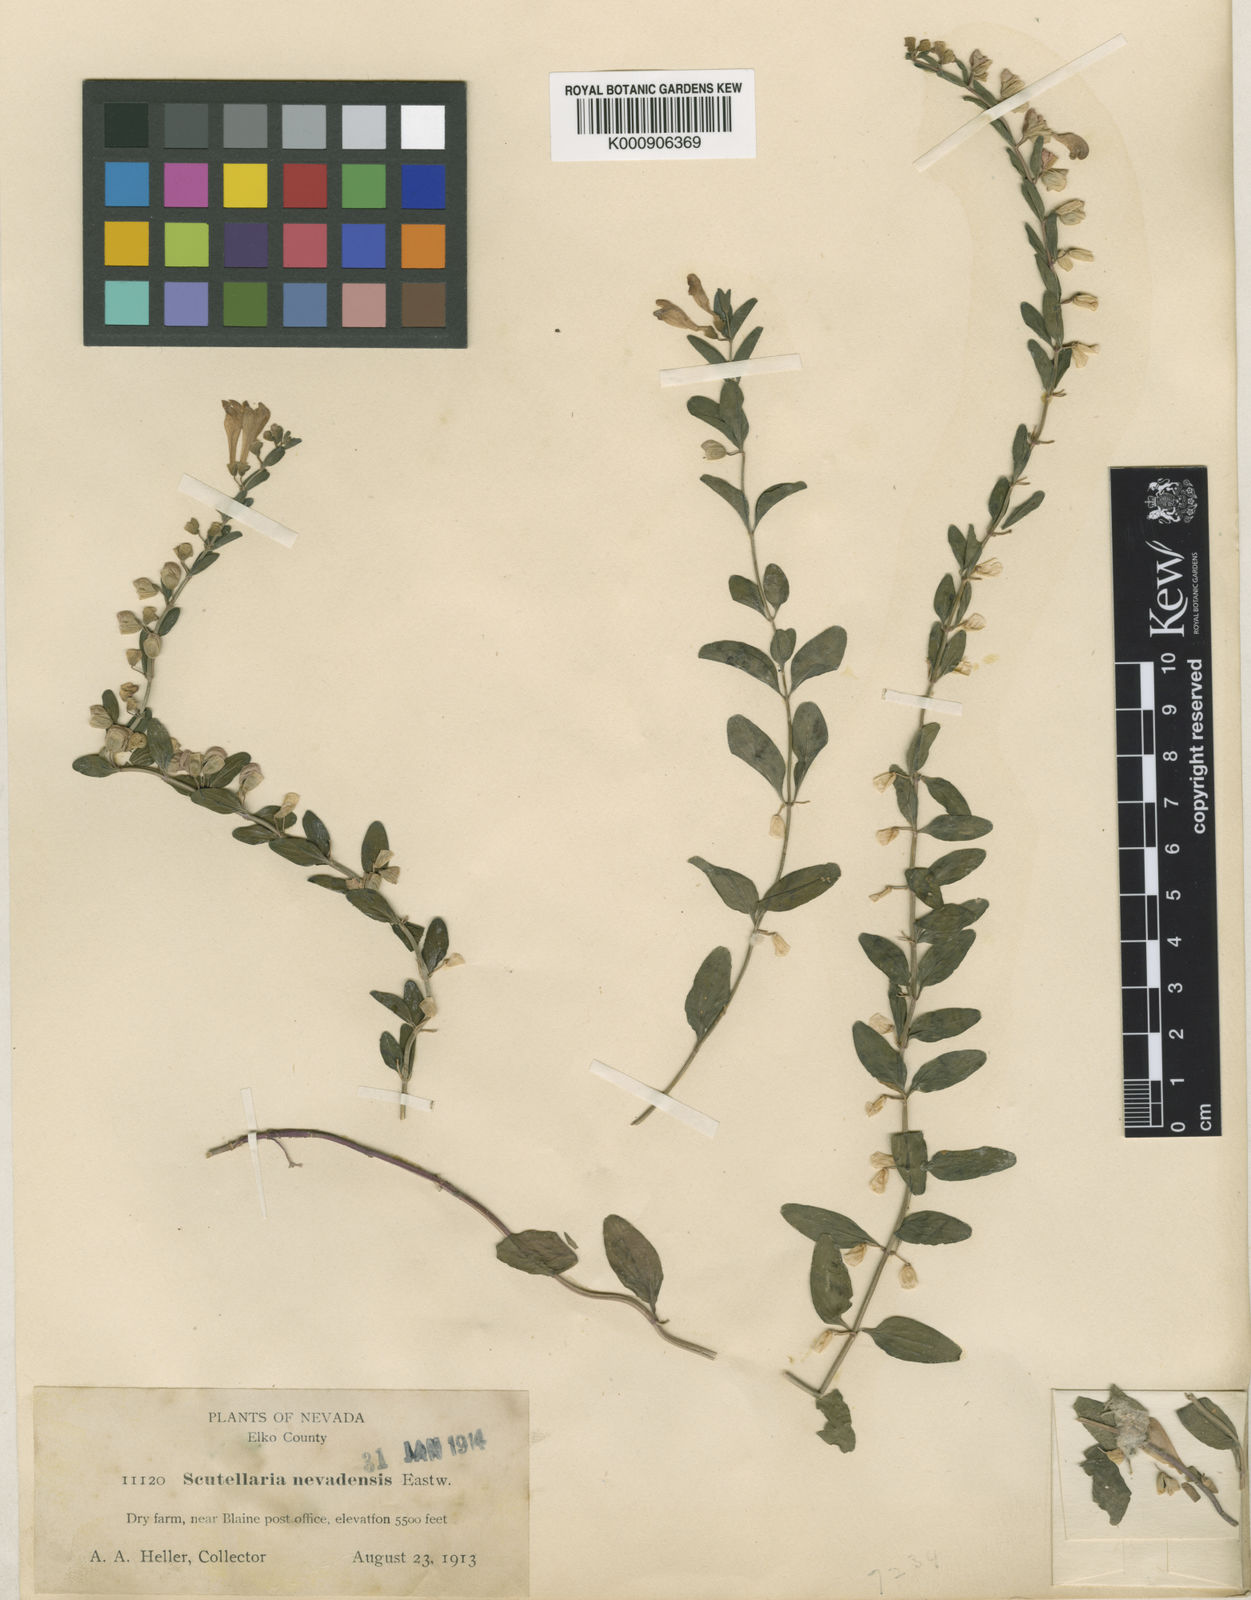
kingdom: Plantae
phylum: Tracheophyta
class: Magnoliopsida
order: Lamiales
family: Lamiaceae
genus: Scutellaria
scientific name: Scutellaria antirrhinoides
